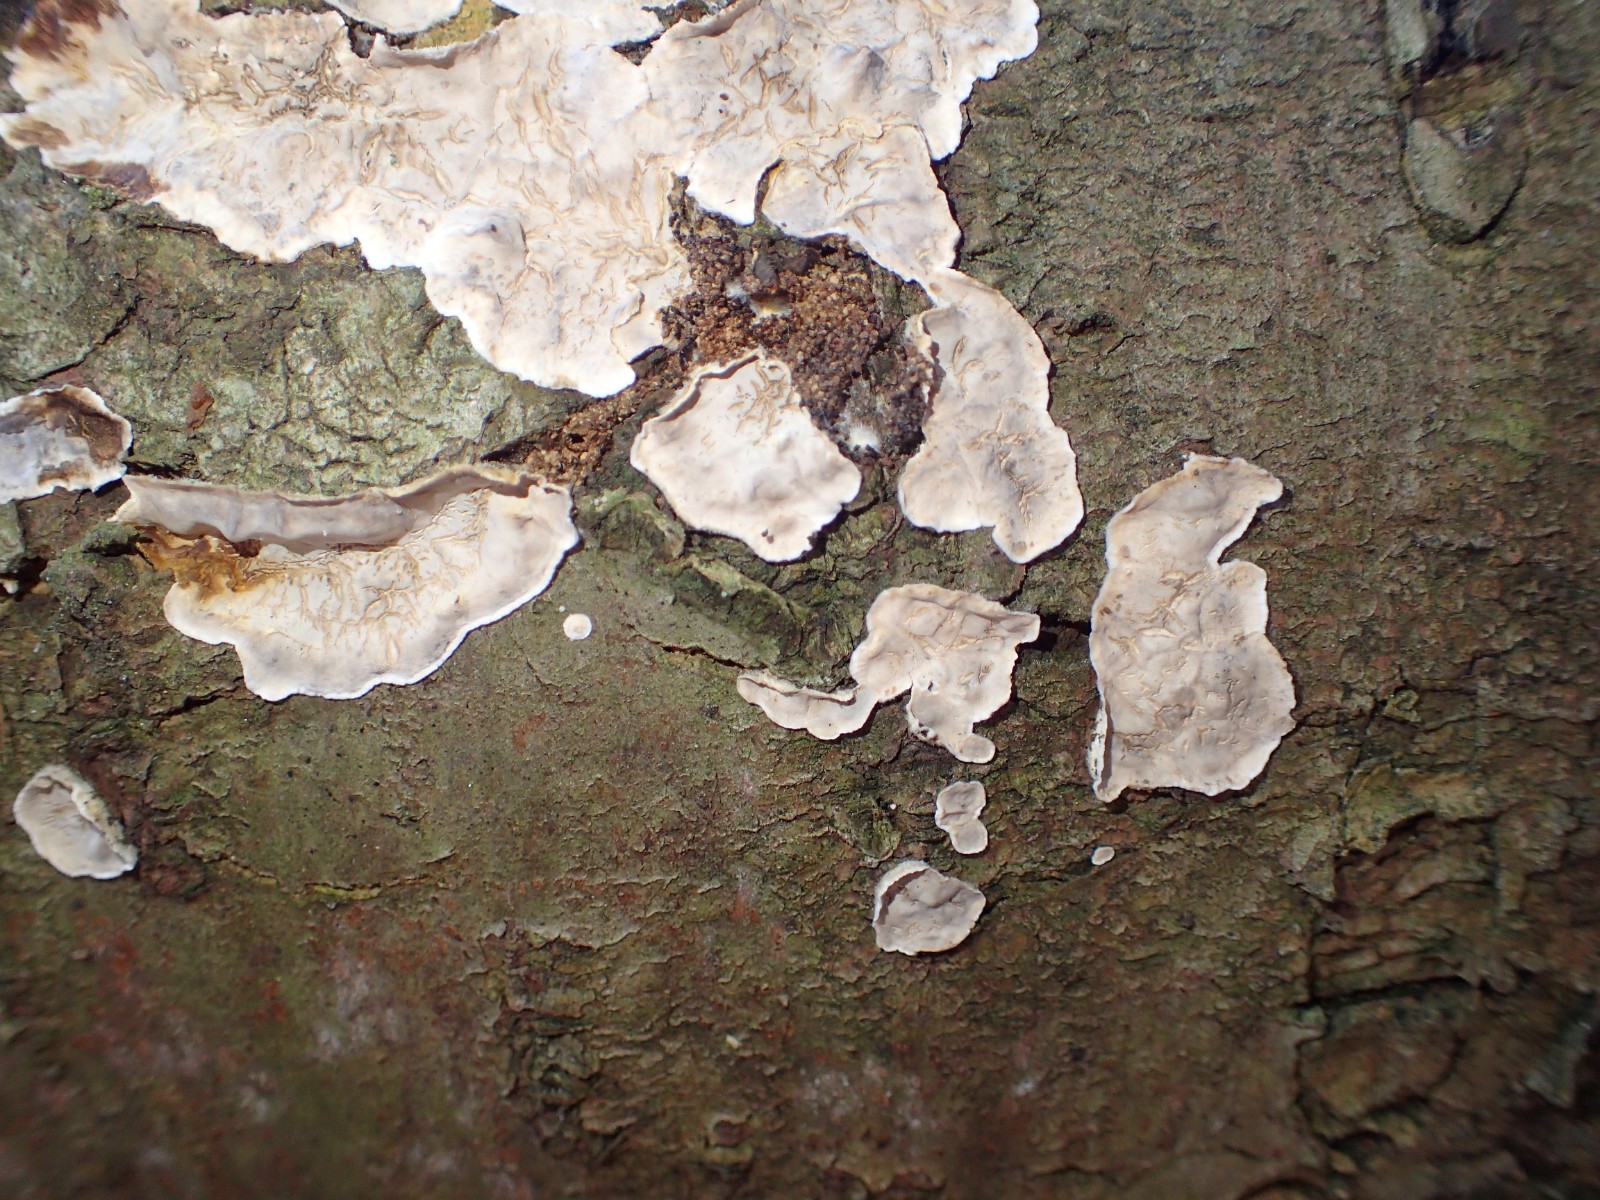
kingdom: Fungi
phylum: Basidiomycota
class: Agaricomycetes
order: Russulales
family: Echinodontiaceae
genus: Amylostereum
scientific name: Amylostereum chailletii
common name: gran-lædersvamp
